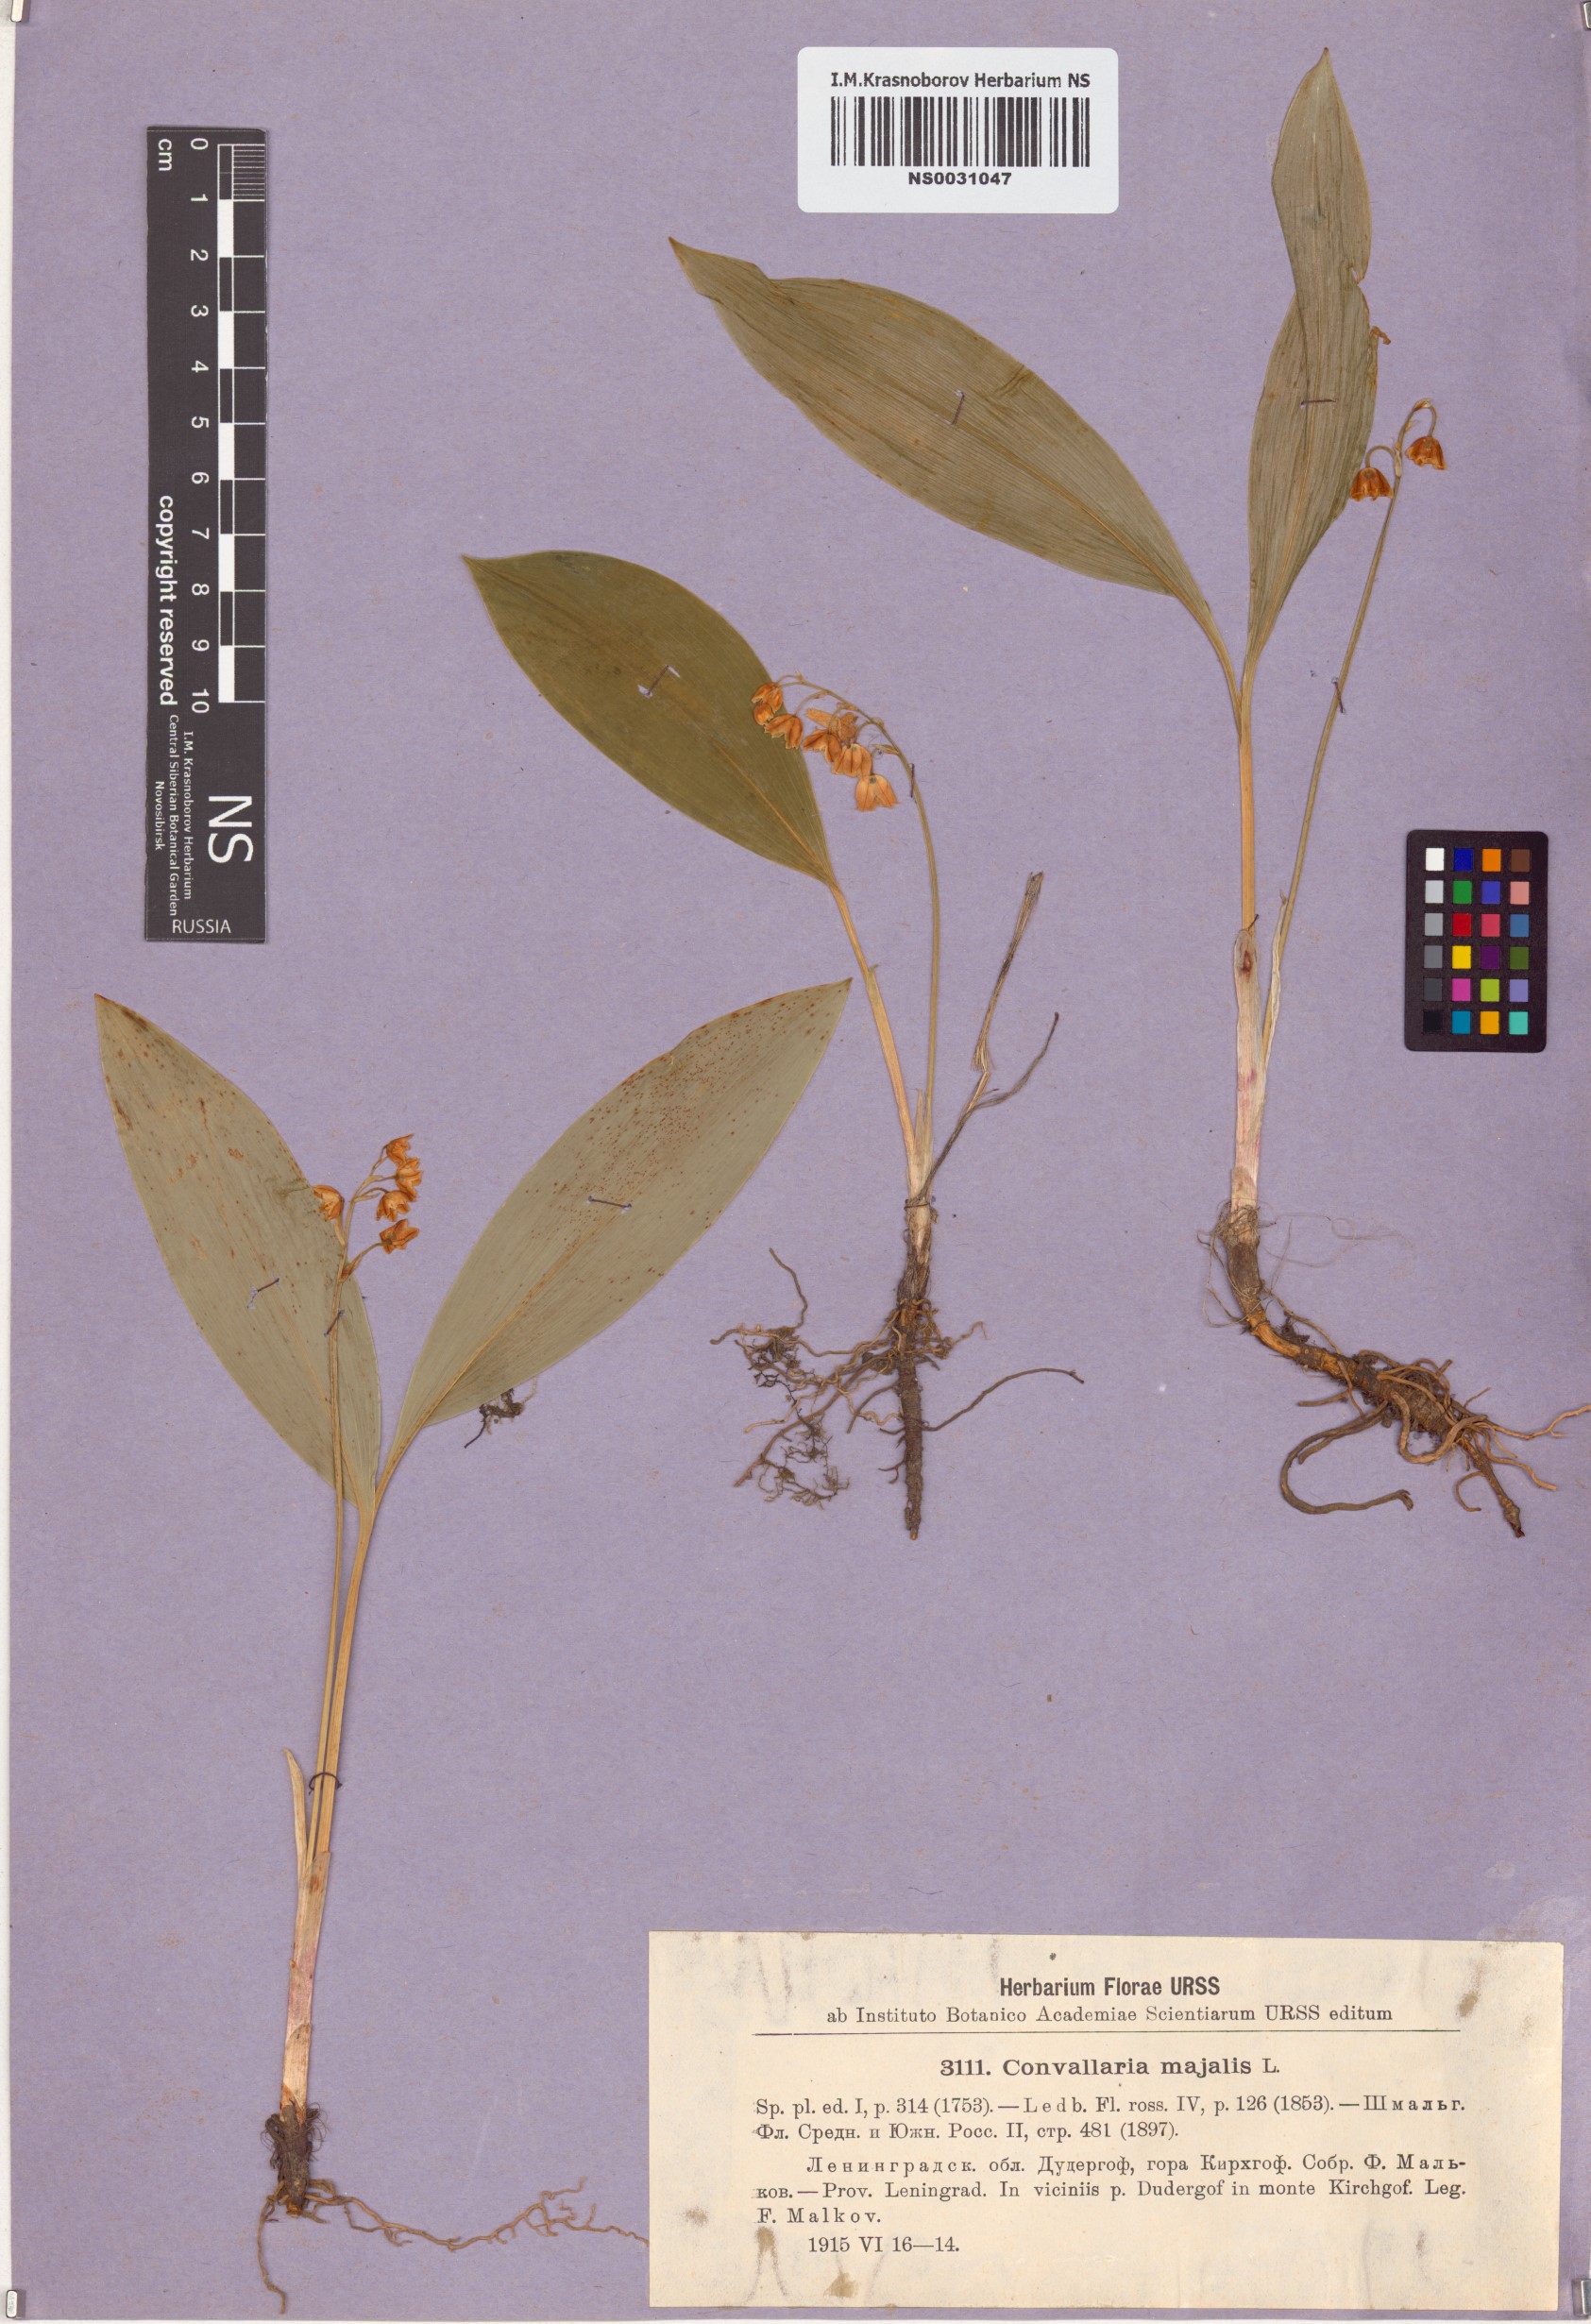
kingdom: Plantae
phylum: Tracheophyta
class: Liliopsida
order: Asparagales
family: Asparagaceae
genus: Convallaria
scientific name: Convallaria majalis
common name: Lily-of-the-valley
